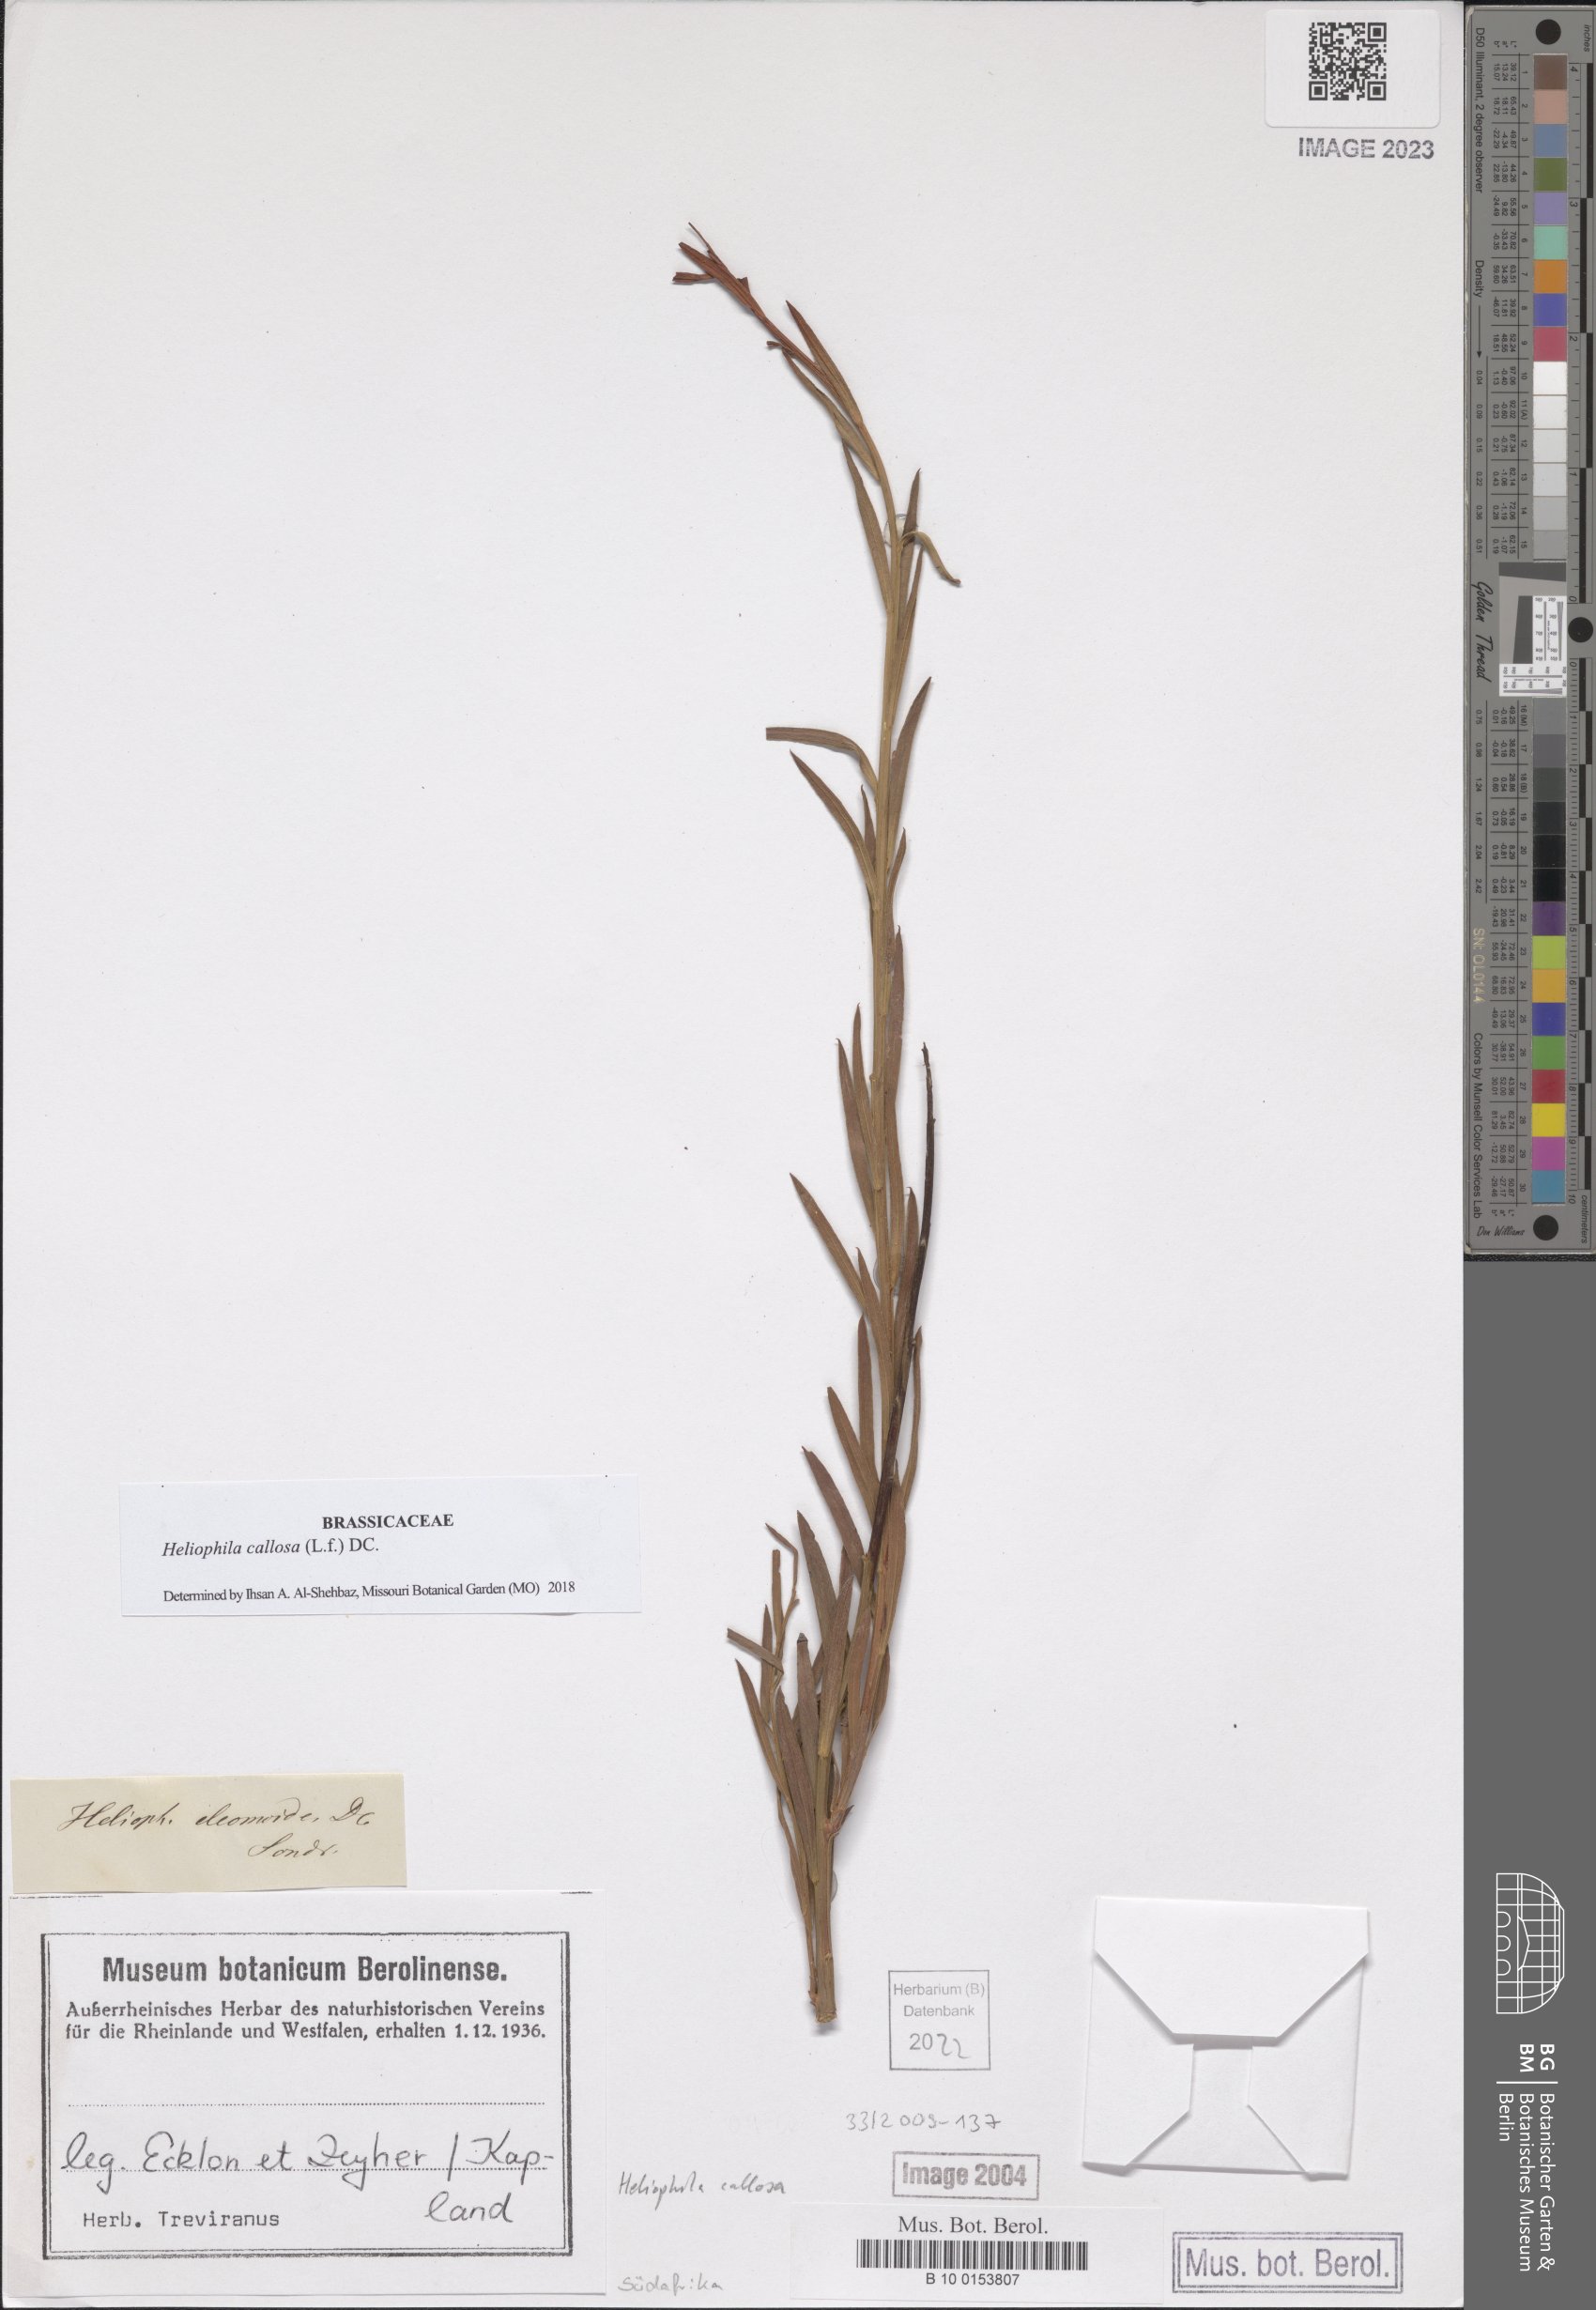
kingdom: Plantae
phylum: Tracheophyta
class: Magnoliopsida
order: Brassicales
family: Brassicaceae
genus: Heliophila
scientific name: Heliophila callosa
